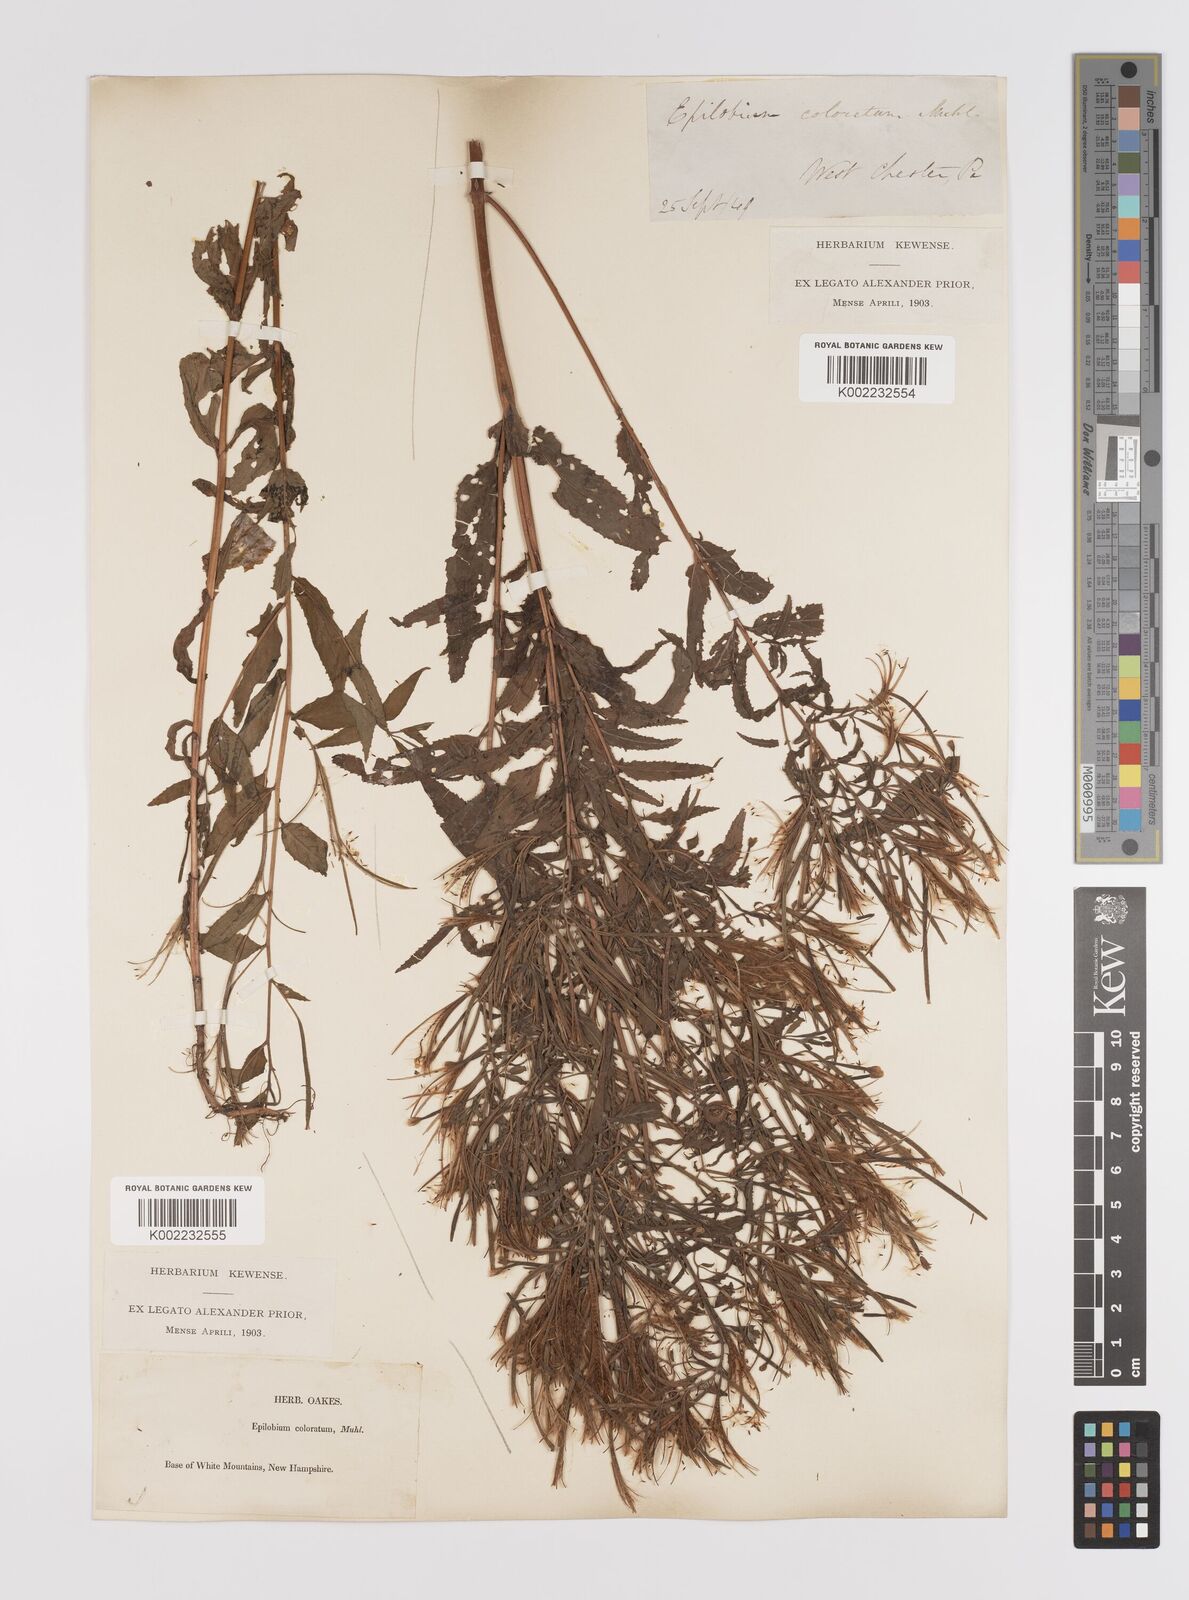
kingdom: Plantae
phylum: Tracheophyta
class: Magnoliopsida
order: Myrtales
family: Onagraceae
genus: Epilobium
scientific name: Epilobium coloratum
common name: Bronze willowherb
